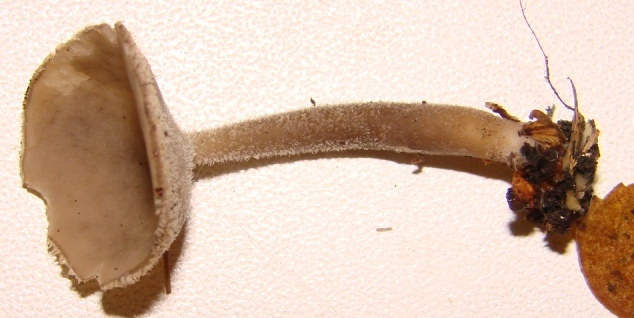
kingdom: Fungi
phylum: Ascomycota
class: Pezizomycetes
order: Pezizales
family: Helvellaceae
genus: Helvella
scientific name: Helvella macropus
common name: højstokket foldhat
